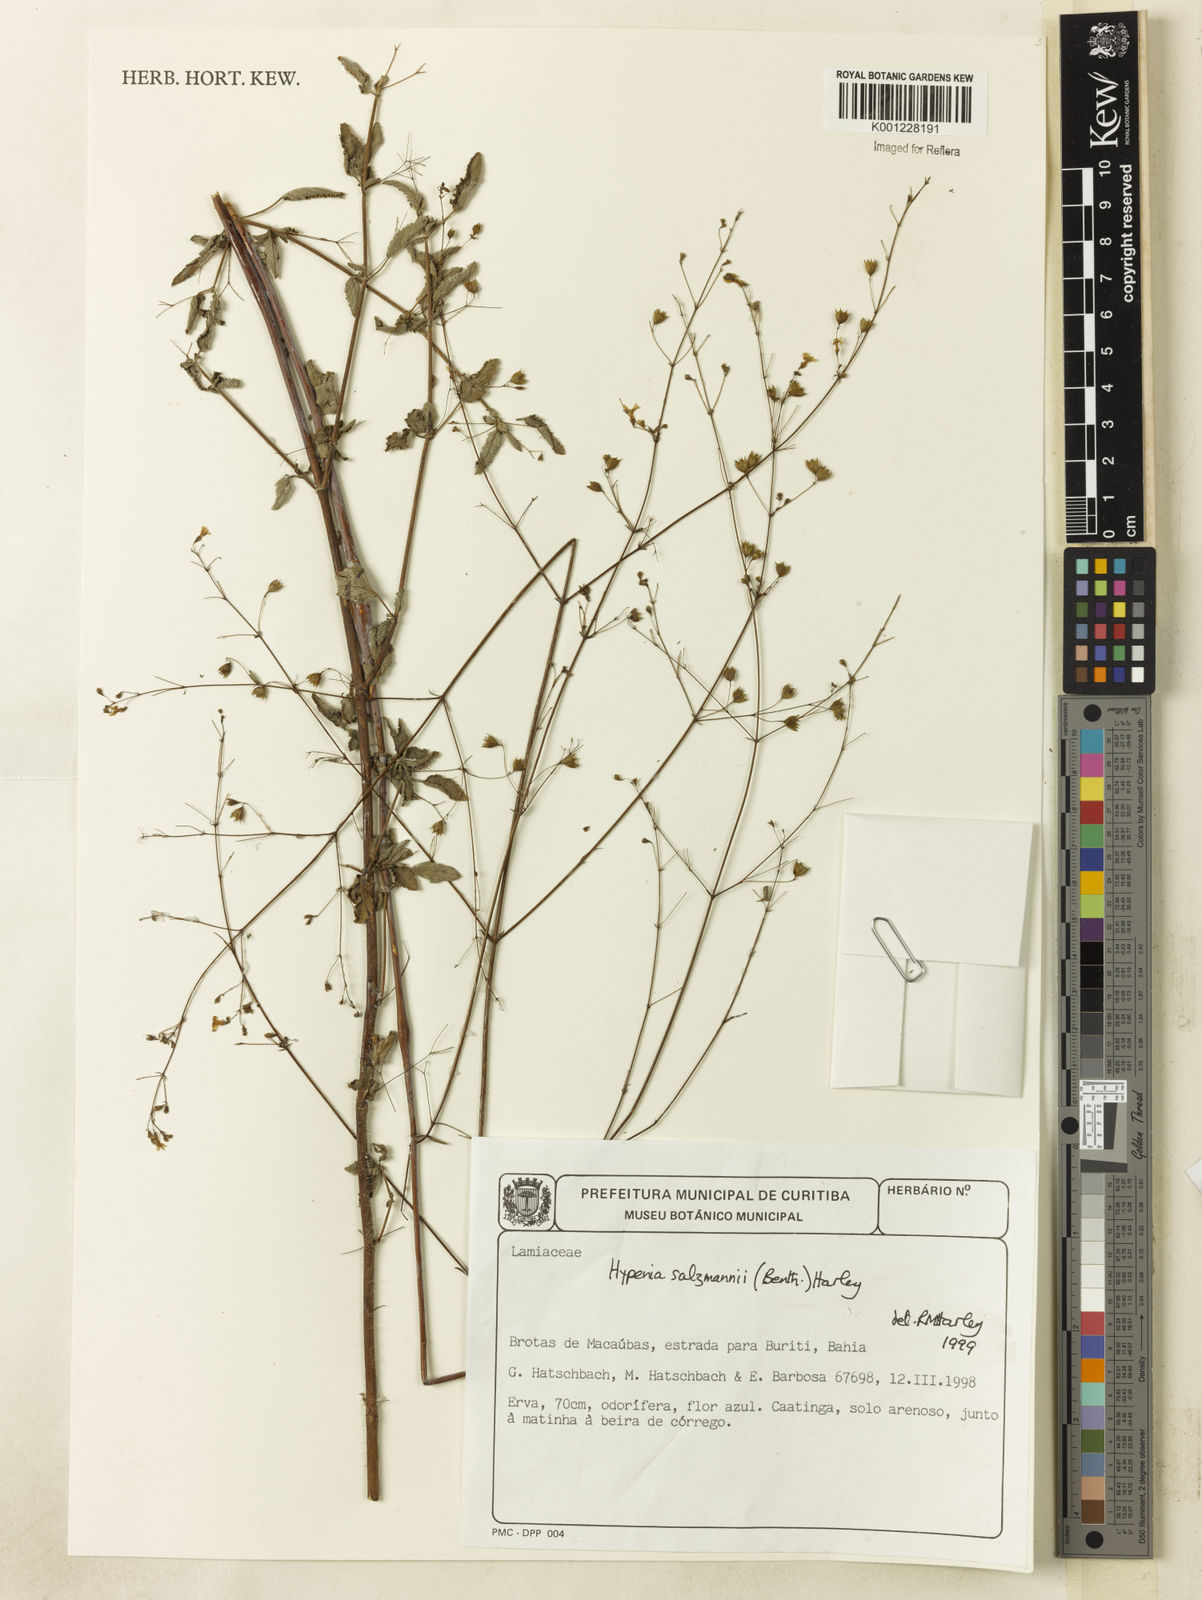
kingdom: Plantae
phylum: Tracheophyta
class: Magnoliopsida
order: Lamiales
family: Lamiaceae
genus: Hypenia
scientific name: Hypenia salzmannii
